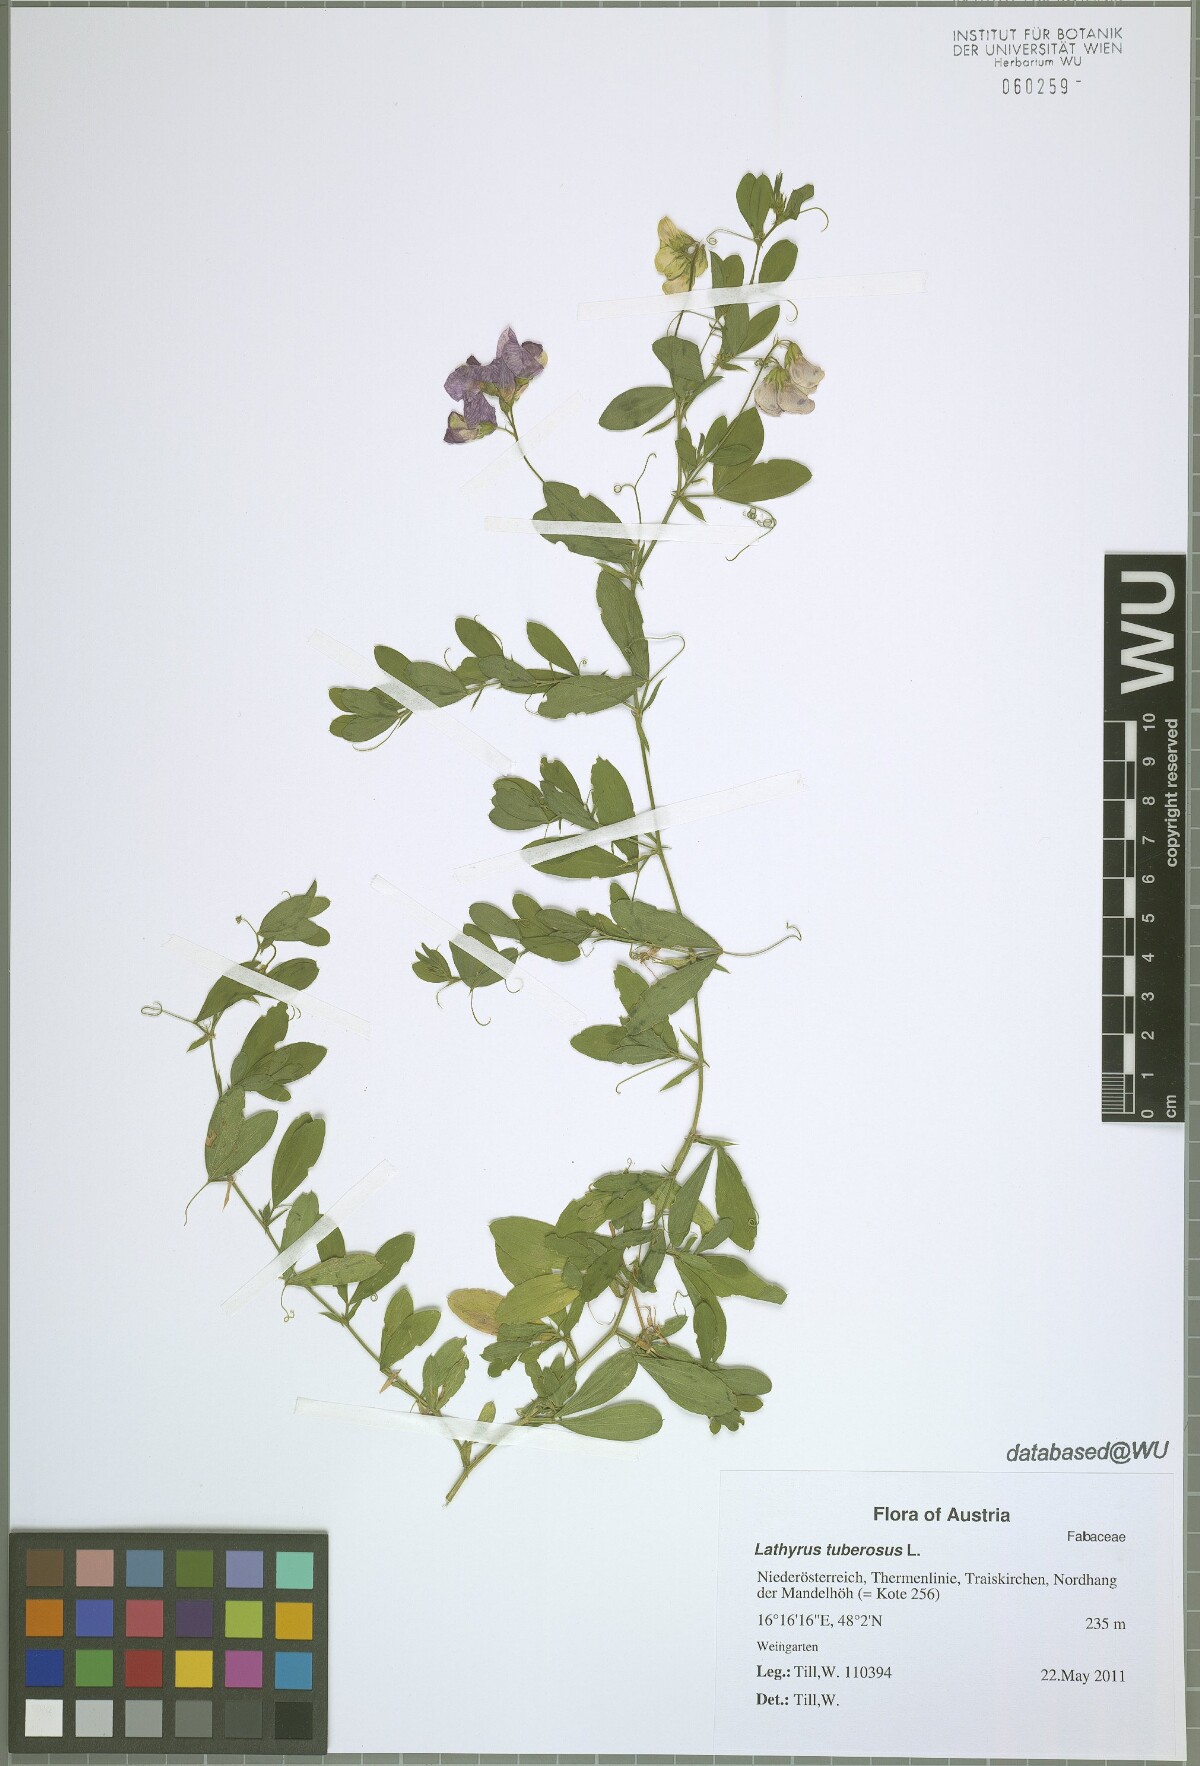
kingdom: Plantae
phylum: Tracheophyta
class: Magnoliopsida
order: Fabales
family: Fabaceae
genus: Lathyrus
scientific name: Lathyrus tuberosus
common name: Tuberous pea
